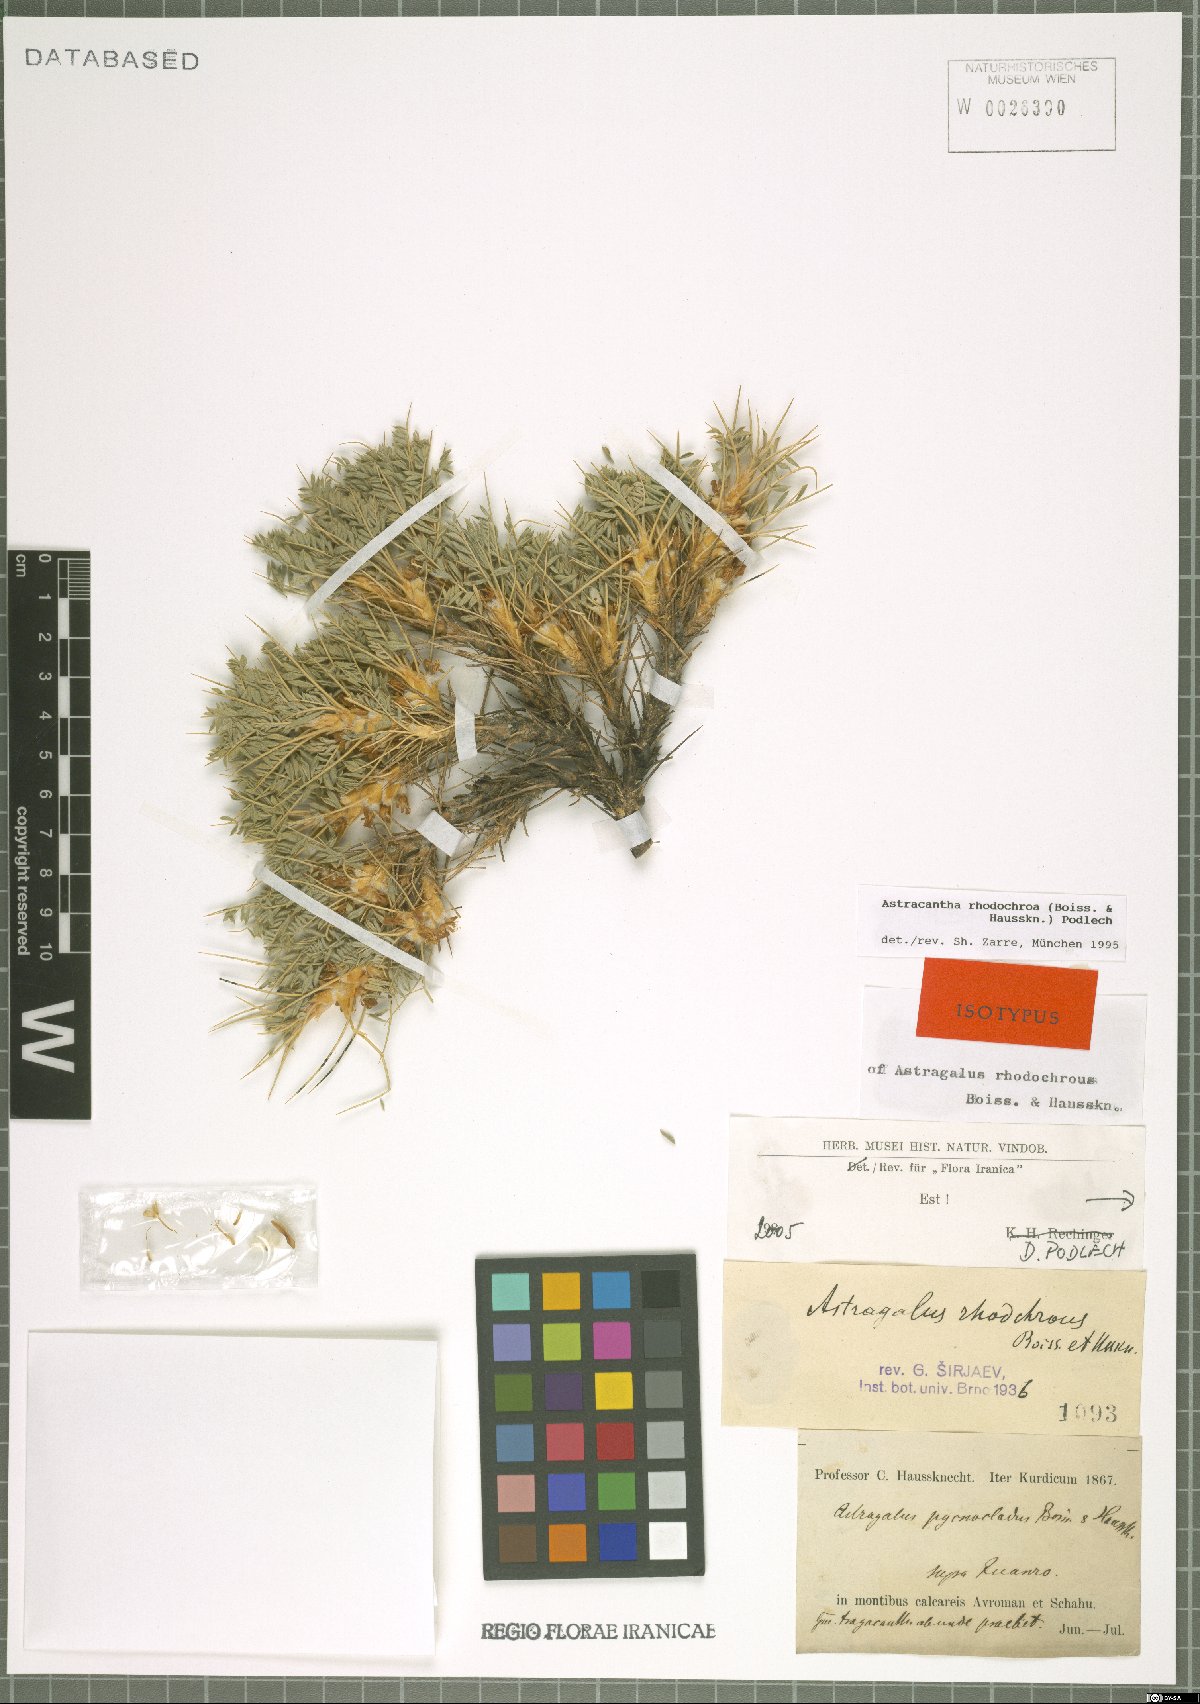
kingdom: Plantae
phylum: Tracheophyta
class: Magnoliopsida
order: Fabales
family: Fabaceae
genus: Astragalus
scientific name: Astragalus rhodochrous
